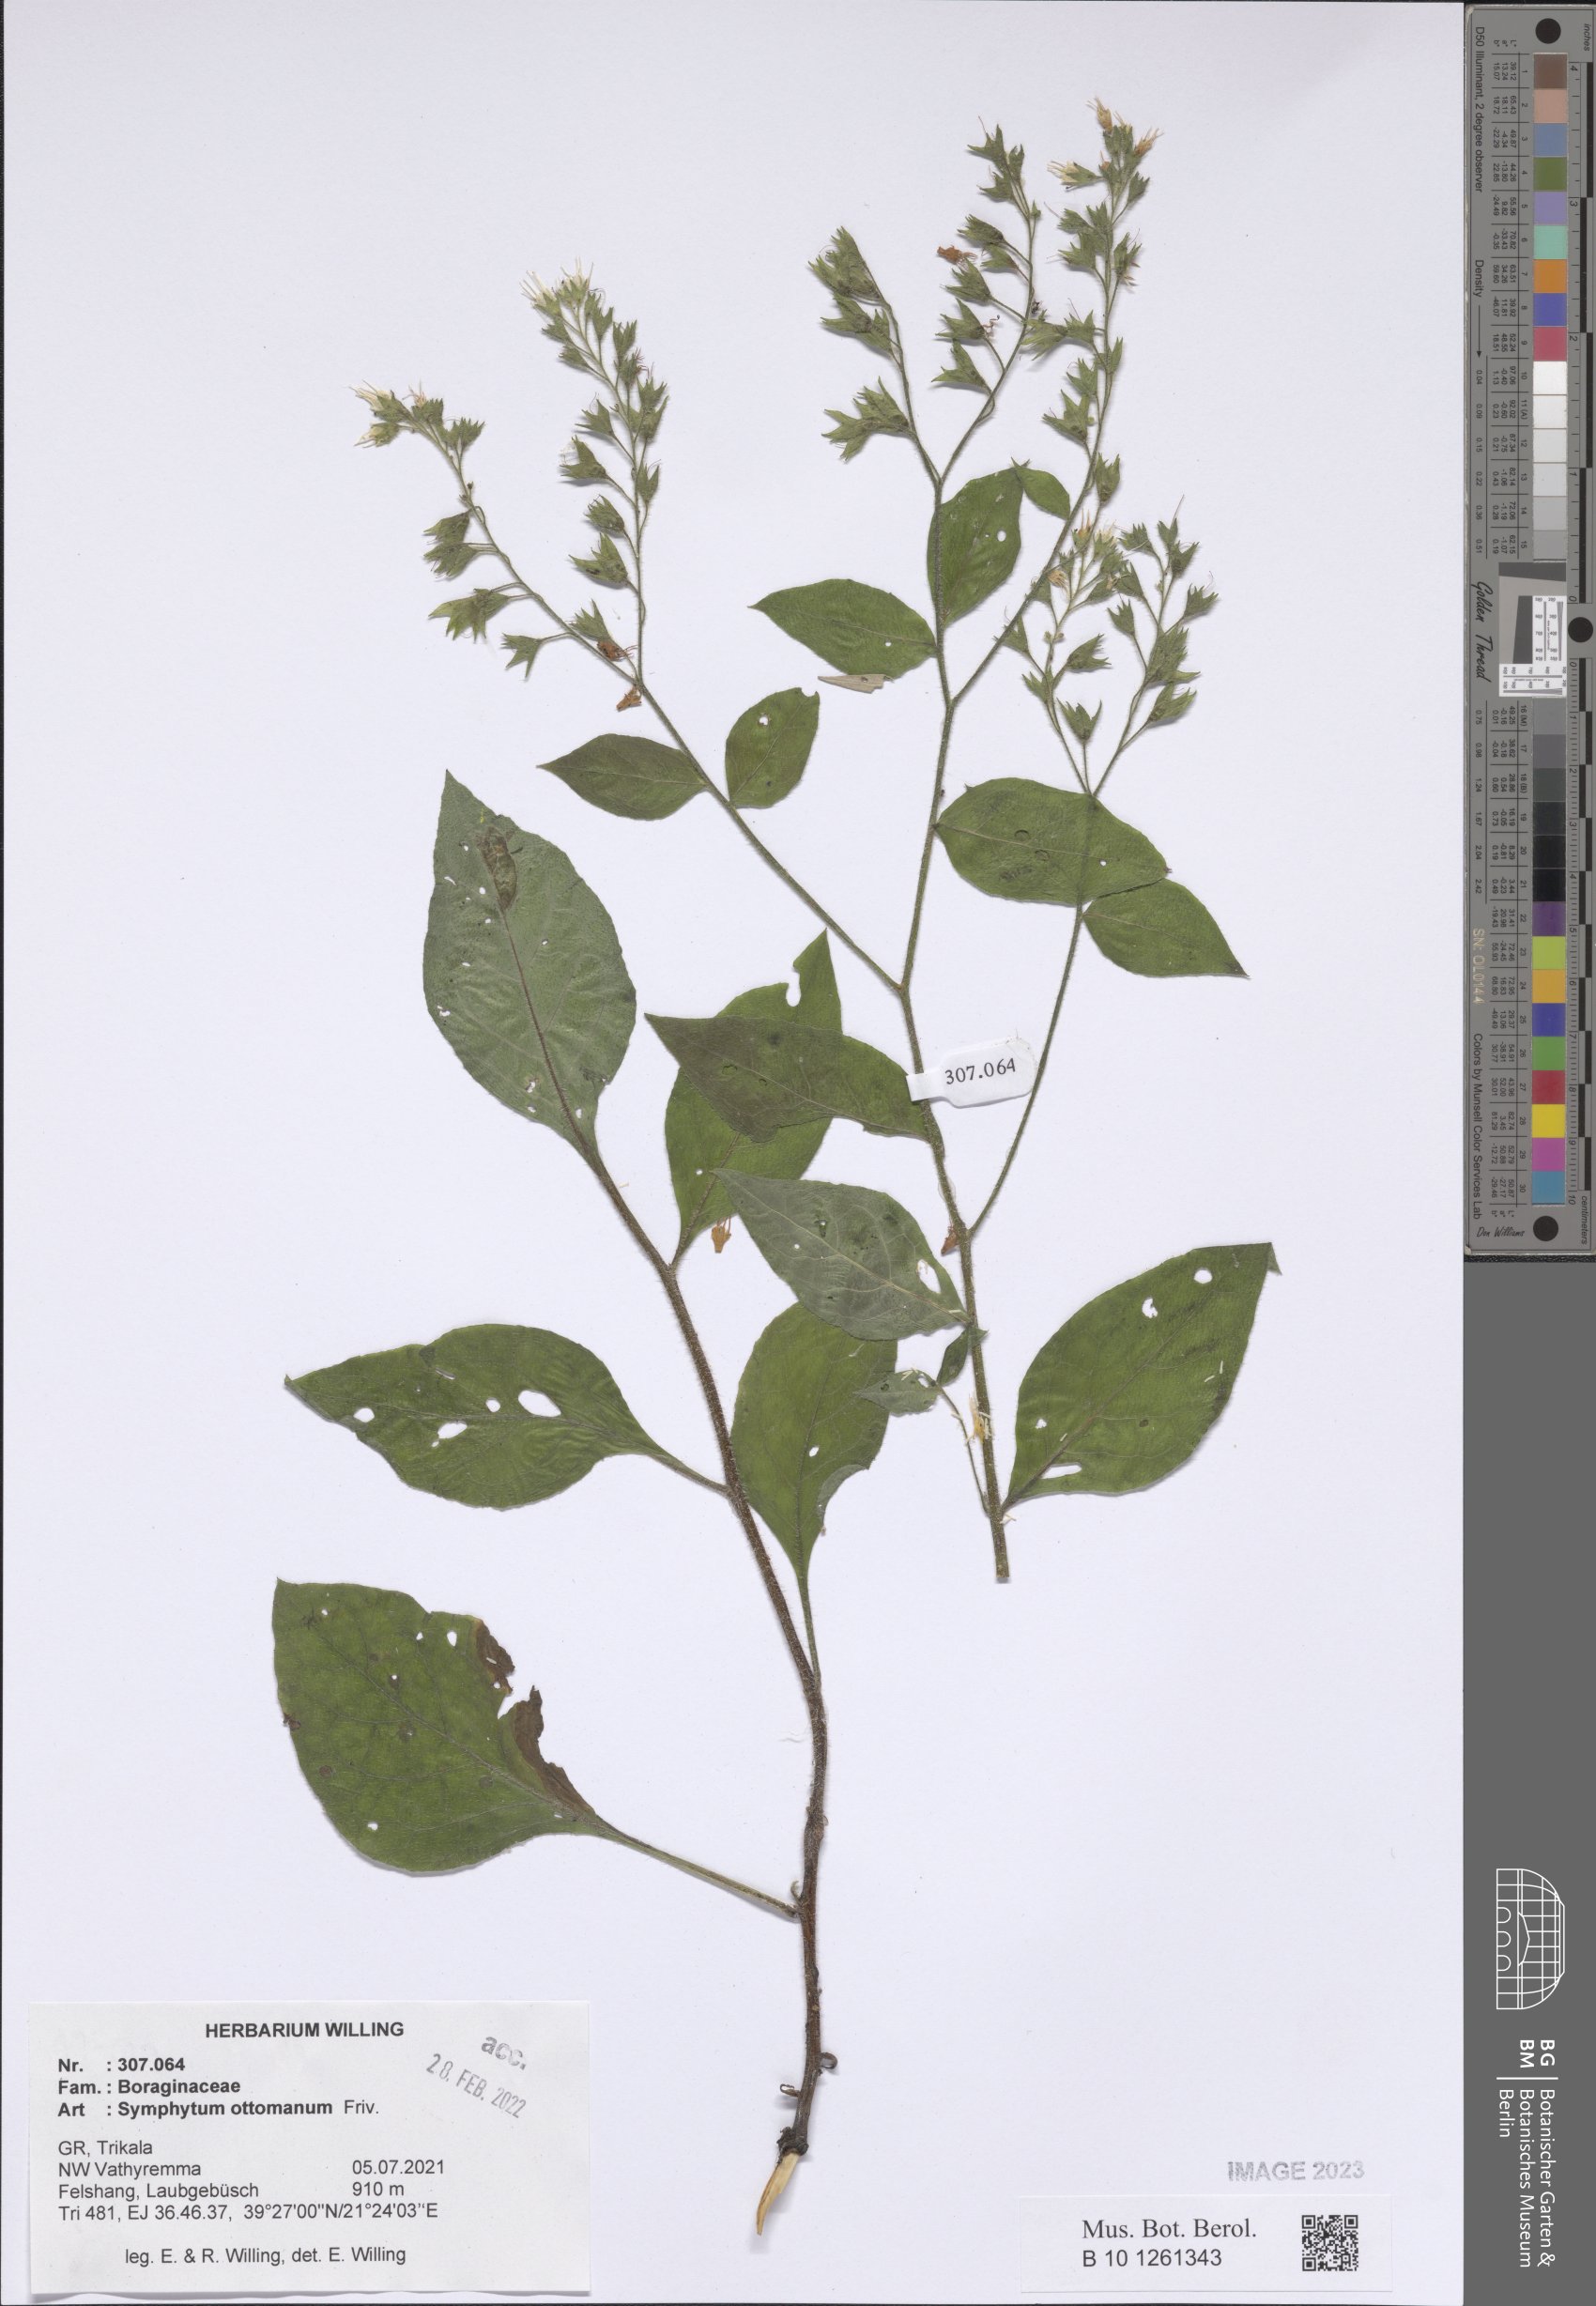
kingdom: Plantae
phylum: Tracheophyta
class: Magnoliopsida
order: Boraginales
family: Boraginaceae
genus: Symphytum
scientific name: Symphytum ottomanum
